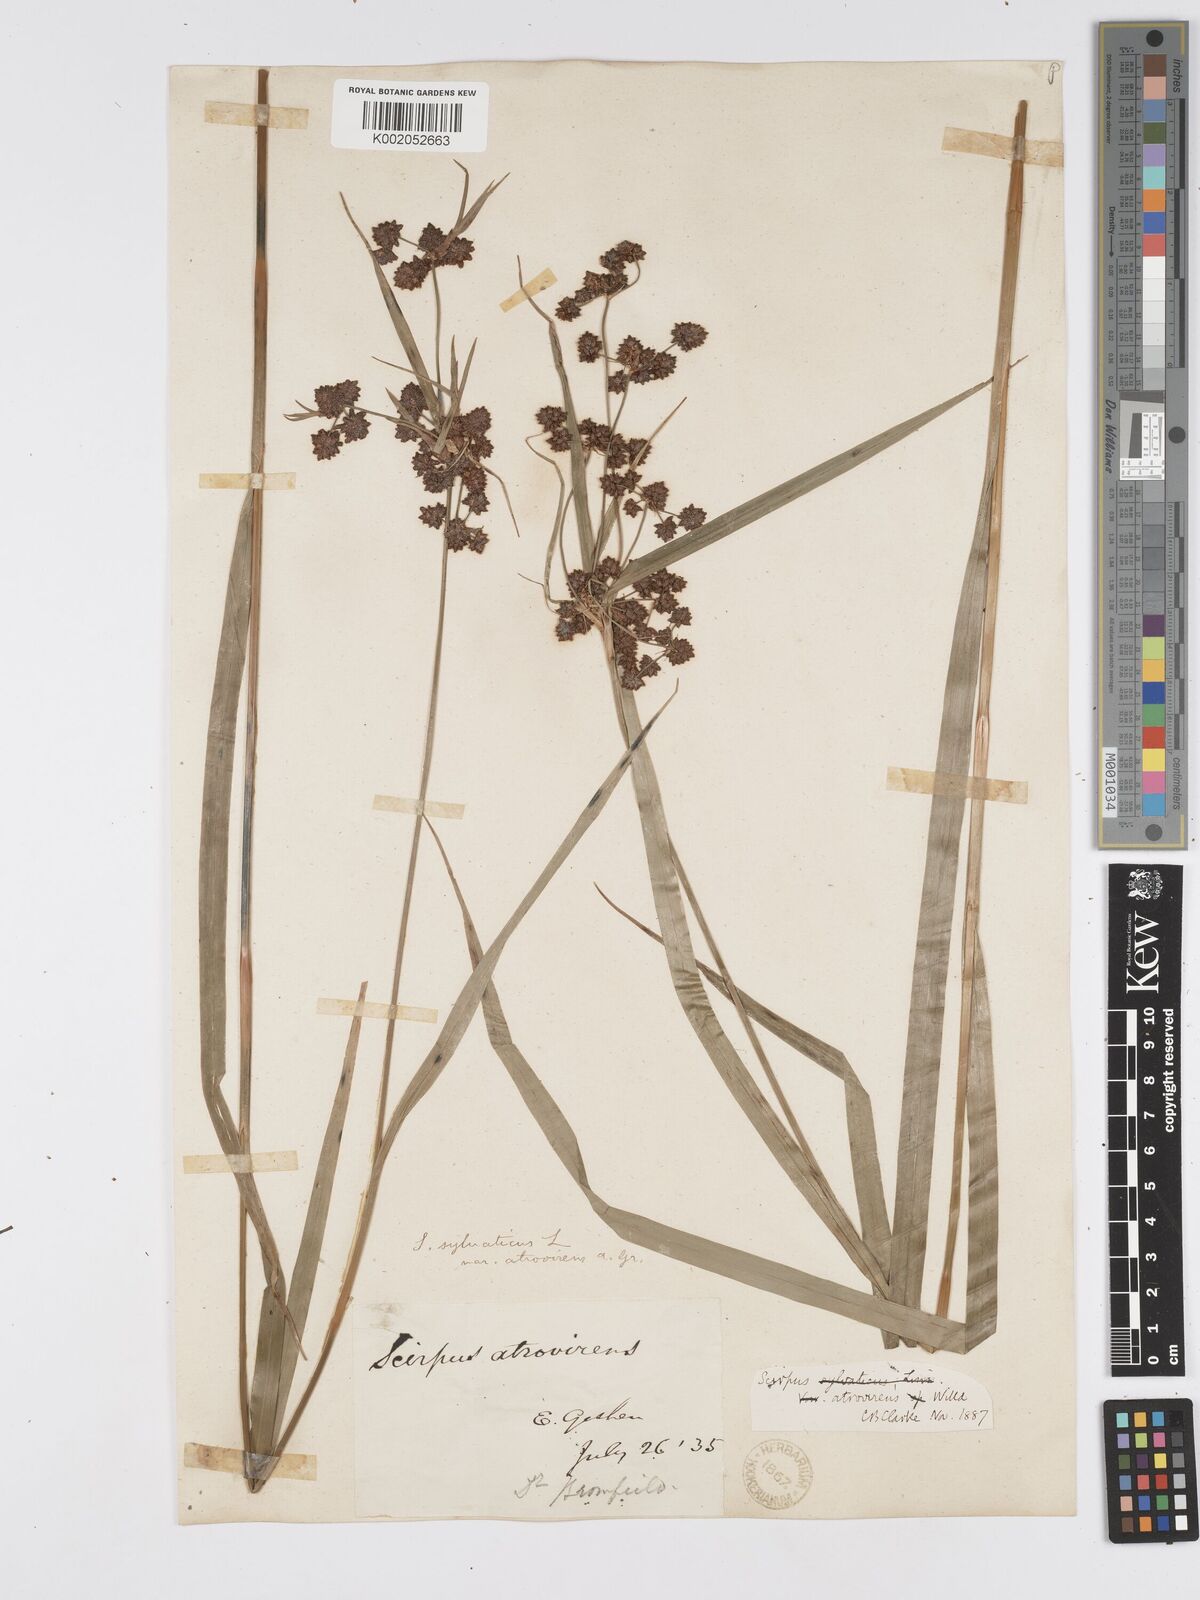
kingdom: Plantae
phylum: Tracheophyta
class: Liliopsida
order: Poales
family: Cyperaceae
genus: Scirpus
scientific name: Scirpus atrovirens
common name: Black bulrush
